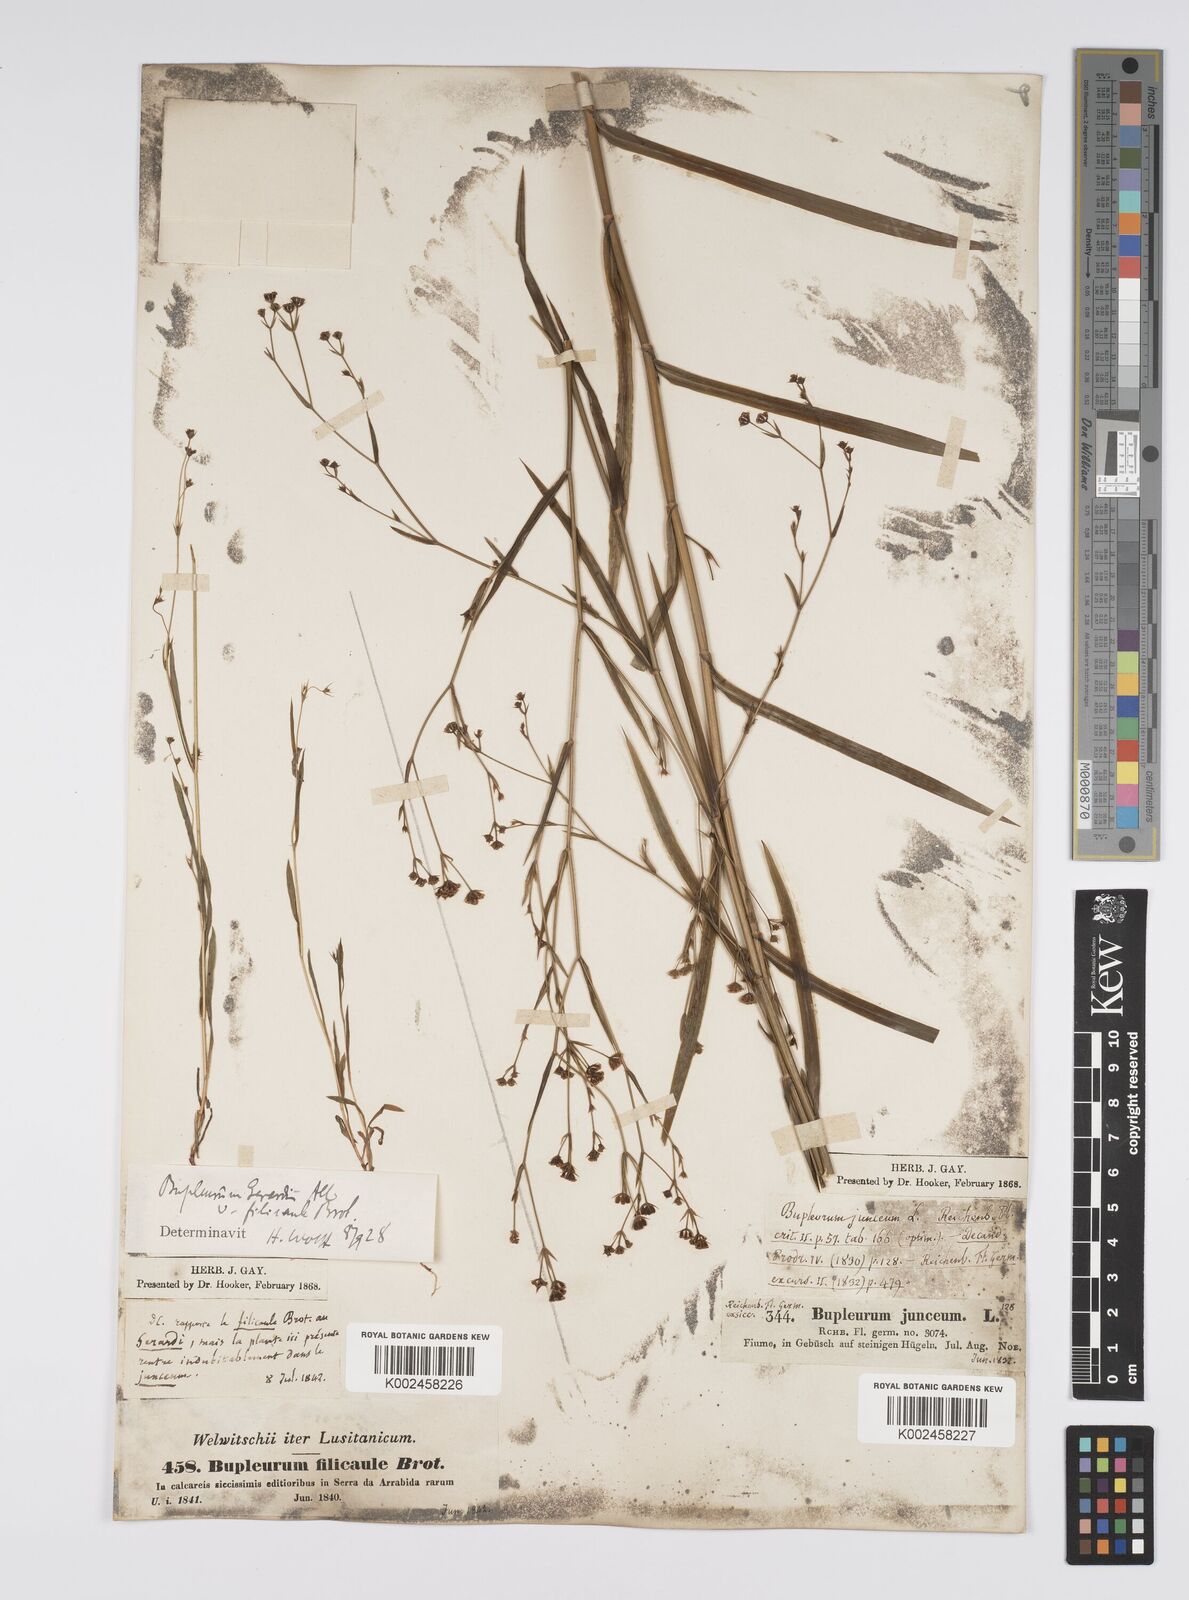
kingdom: Plantae
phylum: Tracheophyta
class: Magnoliopsida
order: Apiales
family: Apiaceae
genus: Bupleurum
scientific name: Bupleurum praealtum
